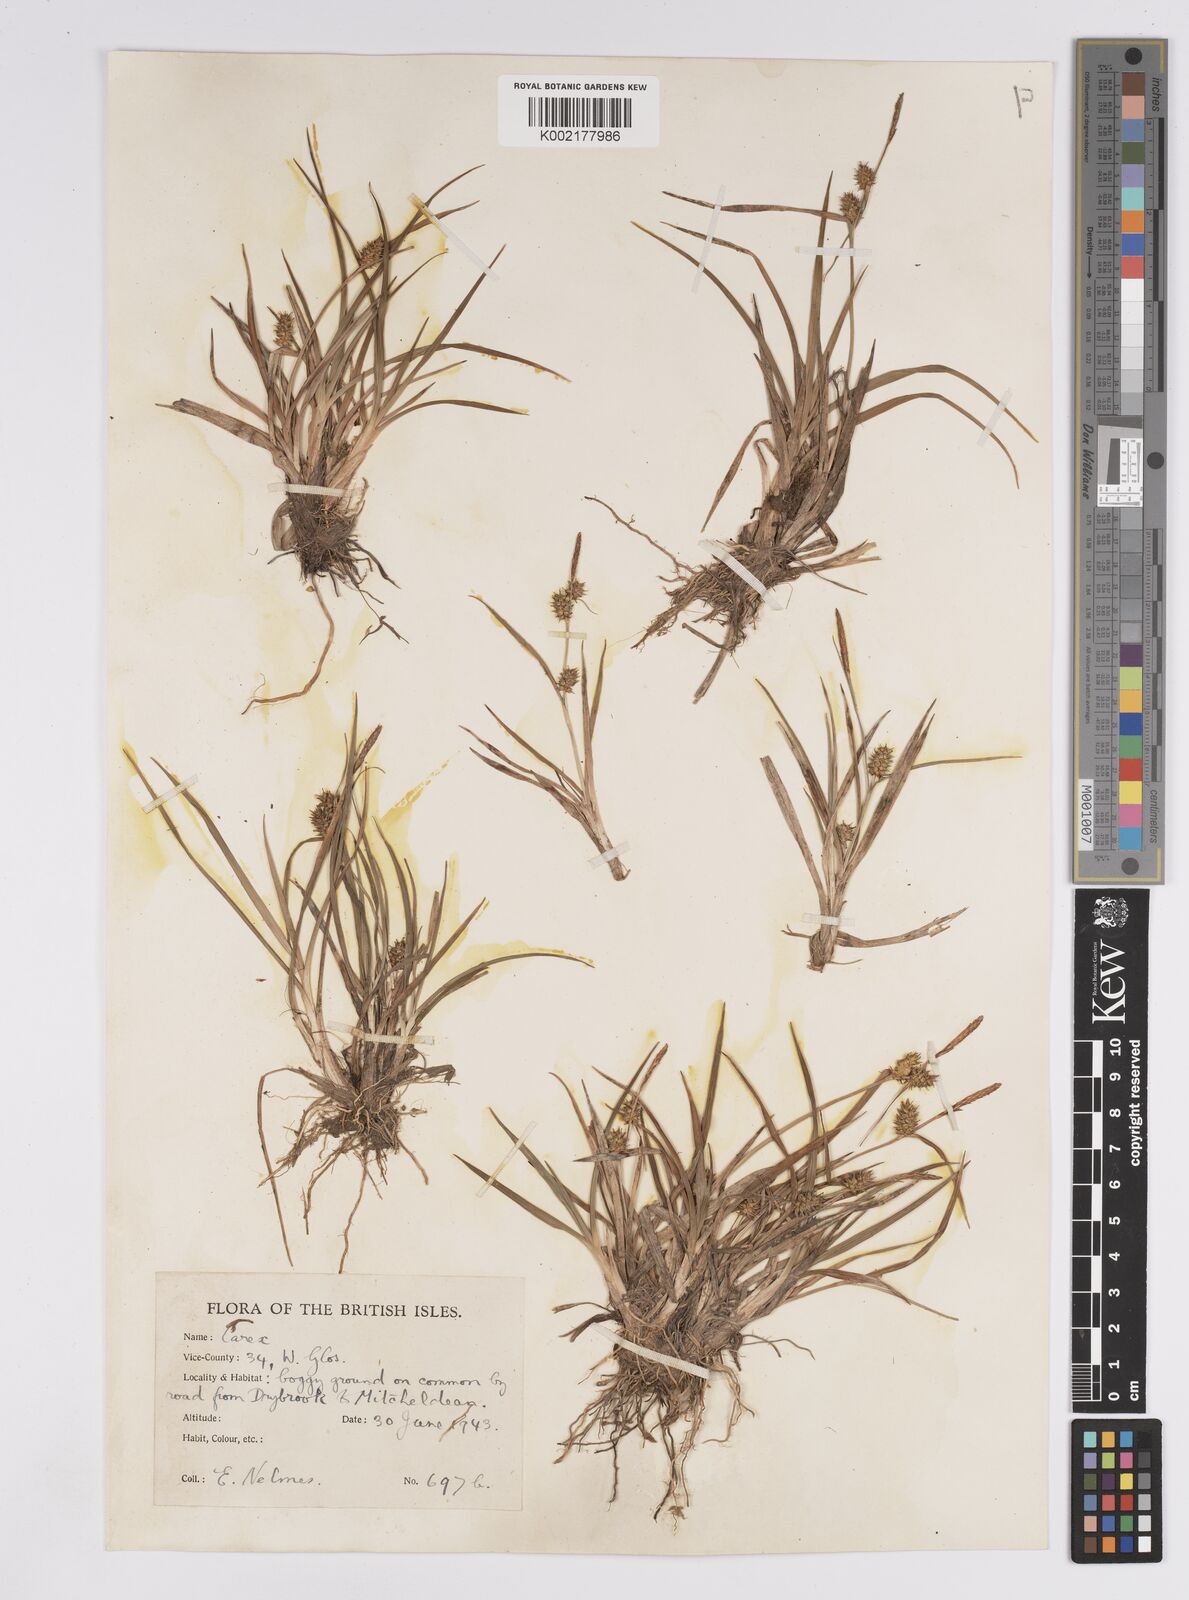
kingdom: Plantae
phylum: Tracheophyta
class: Liliopsida
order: Poales
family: Cyperaceae
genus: Carex
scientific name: Carex demissa
